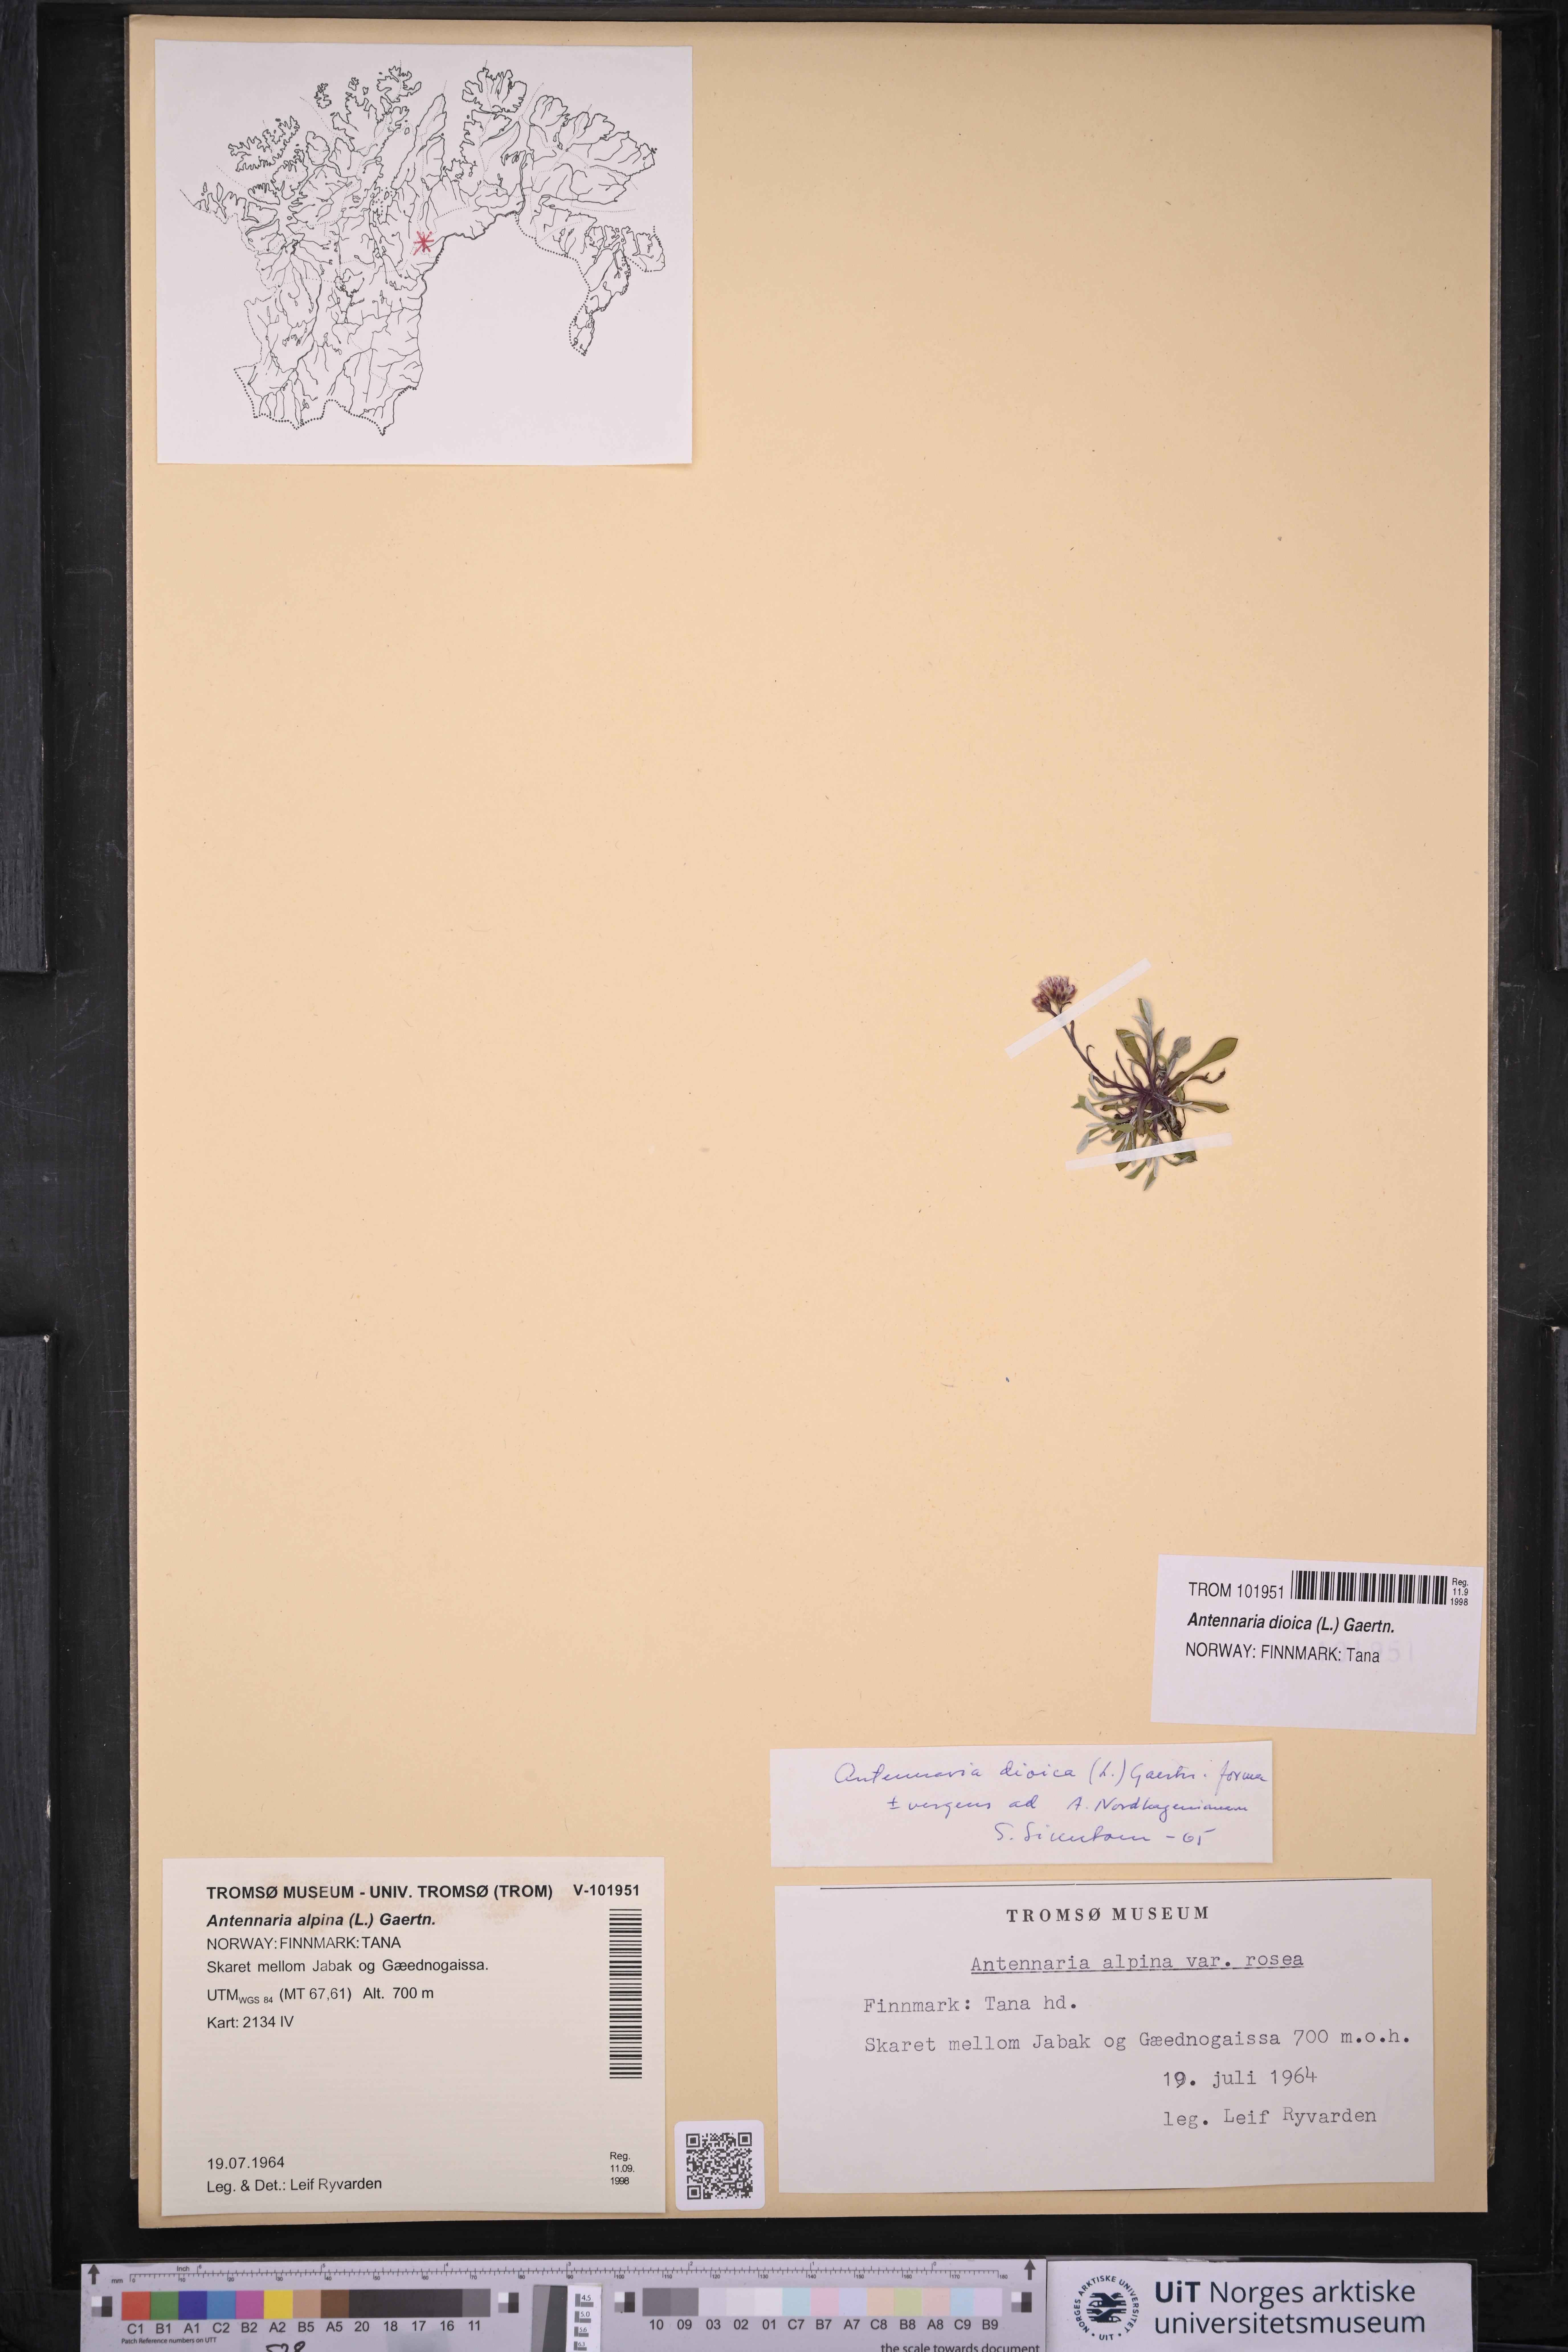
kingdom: Plantae
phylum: Tracheophyta
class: Magnoliopsida
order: Asterales
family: Asteraceae
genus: Antennaria
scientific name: Antennaria dioica
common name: Mountain everlasting
